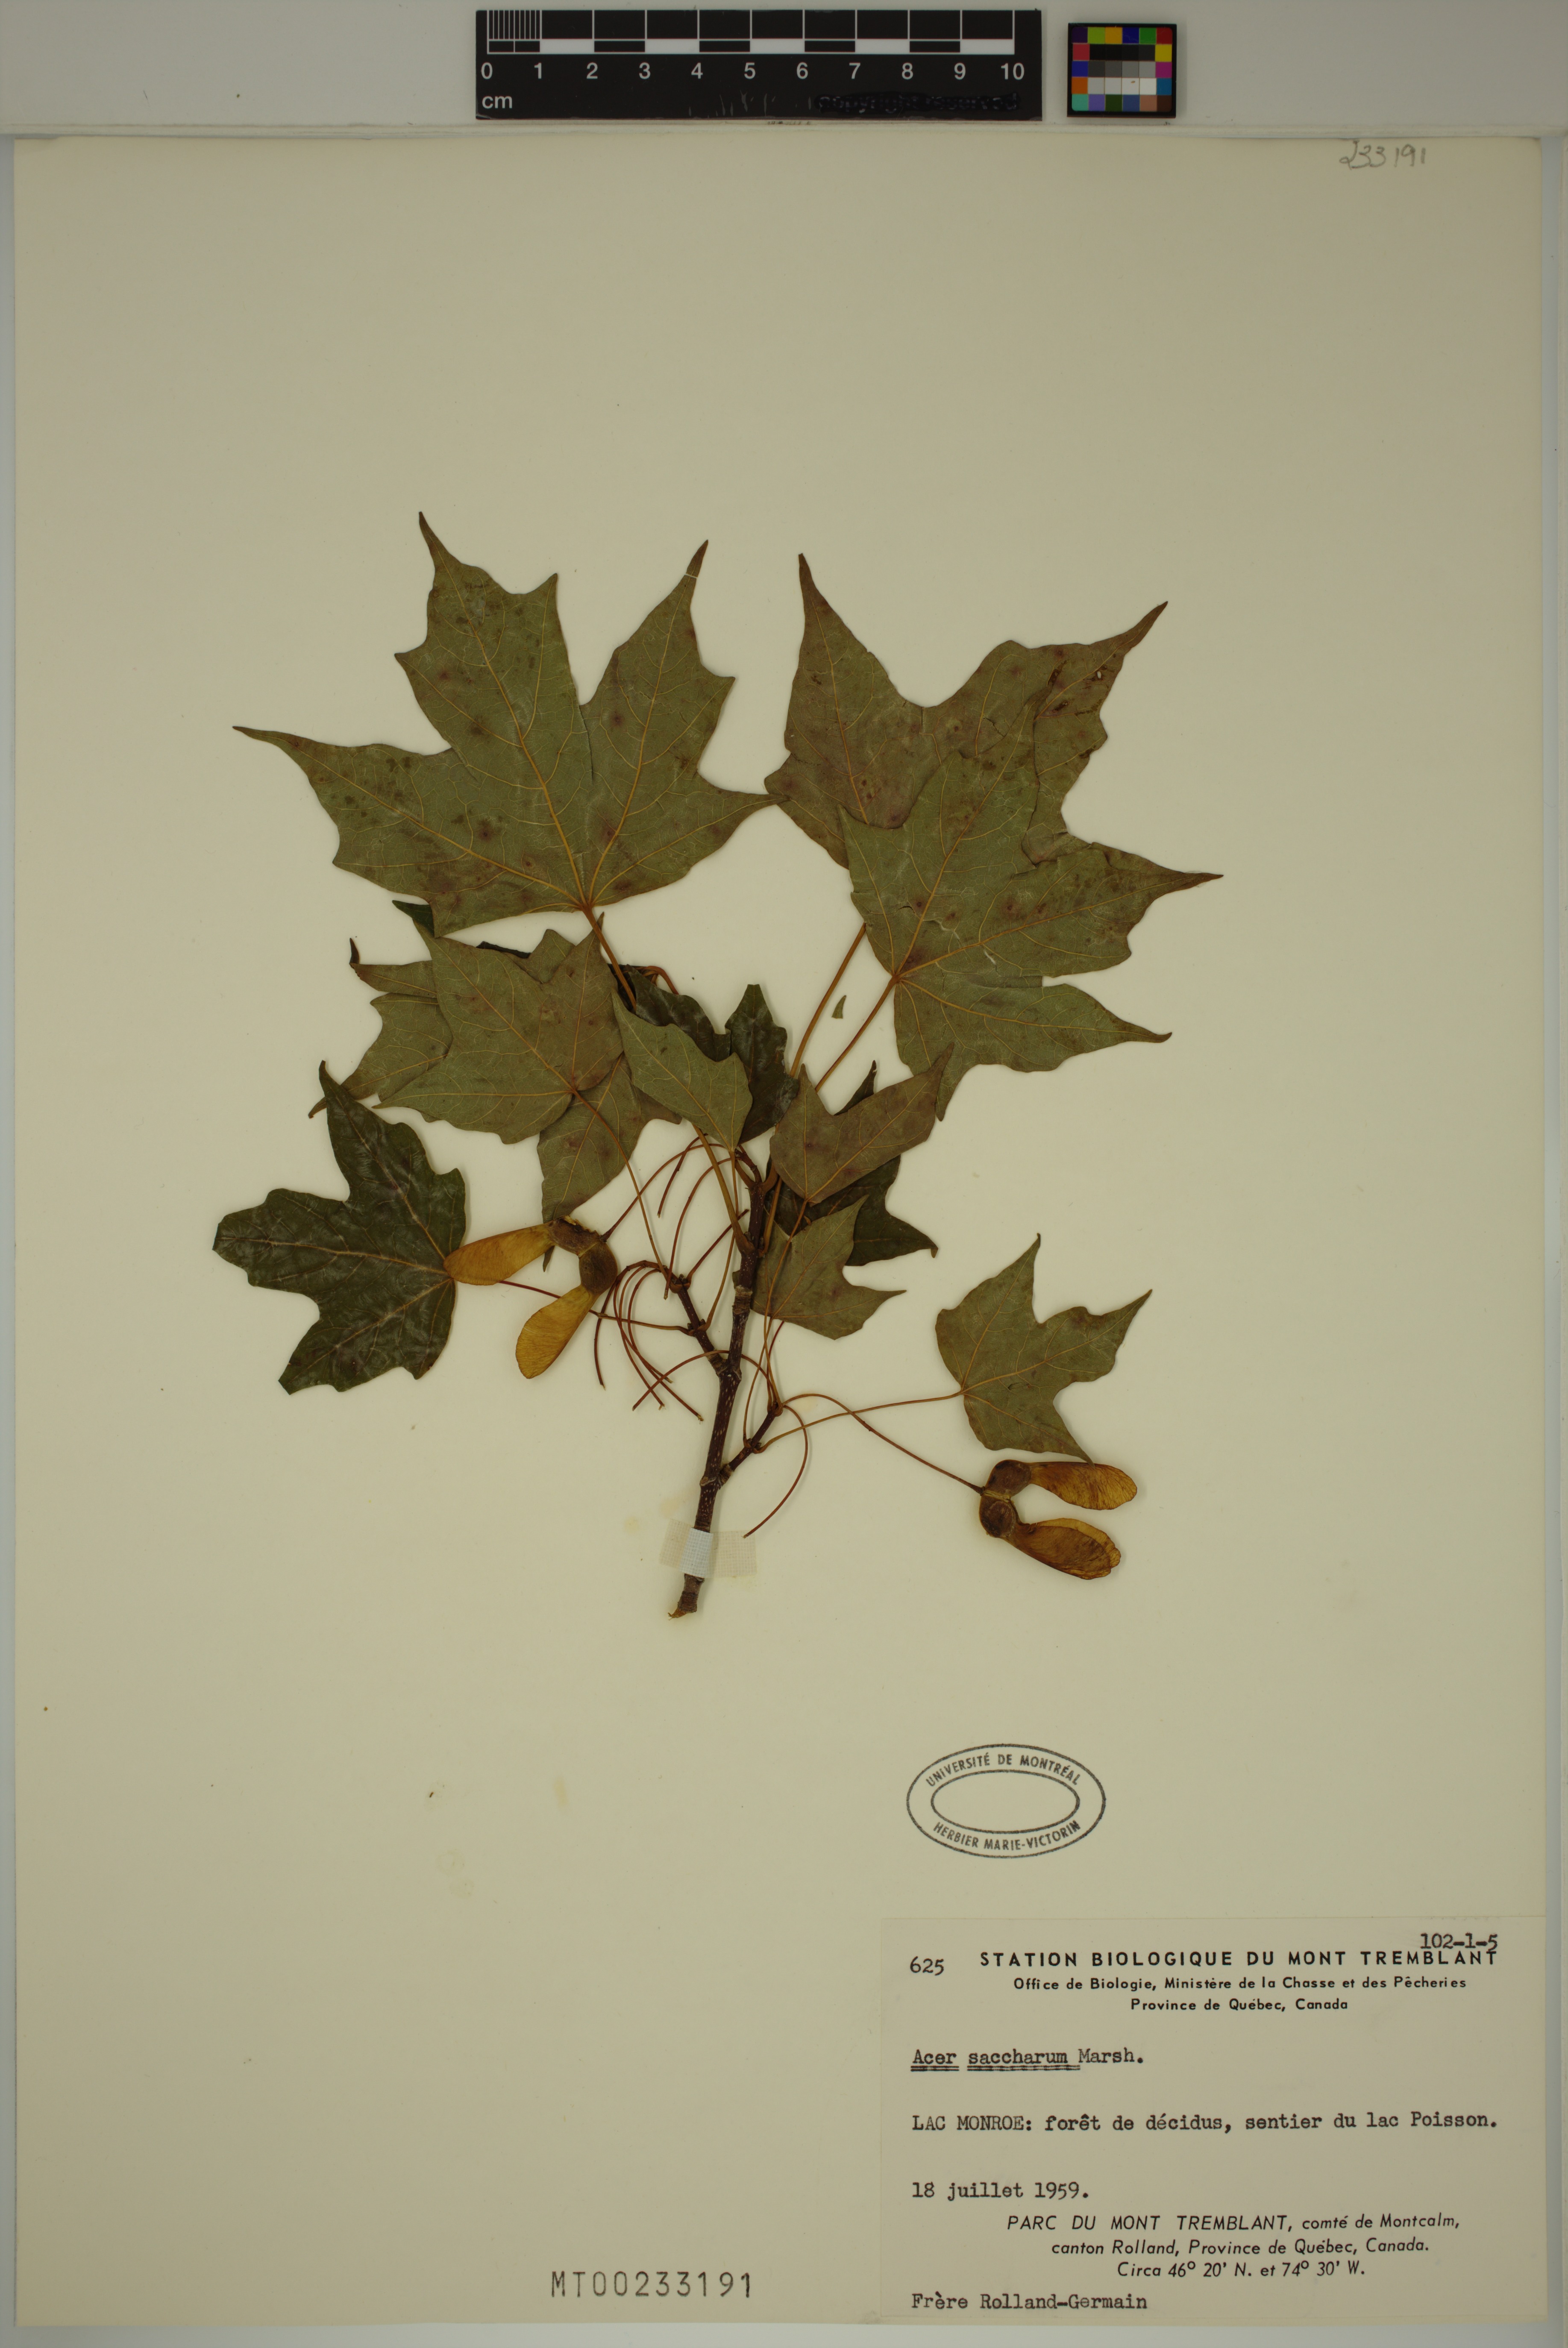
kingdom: Plantae
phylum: Tracheophyta
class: Magnoliopsida
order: Sapindales
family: Sapindaceae
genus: Acer
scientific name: Acer saccharum
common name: Sugar maple
